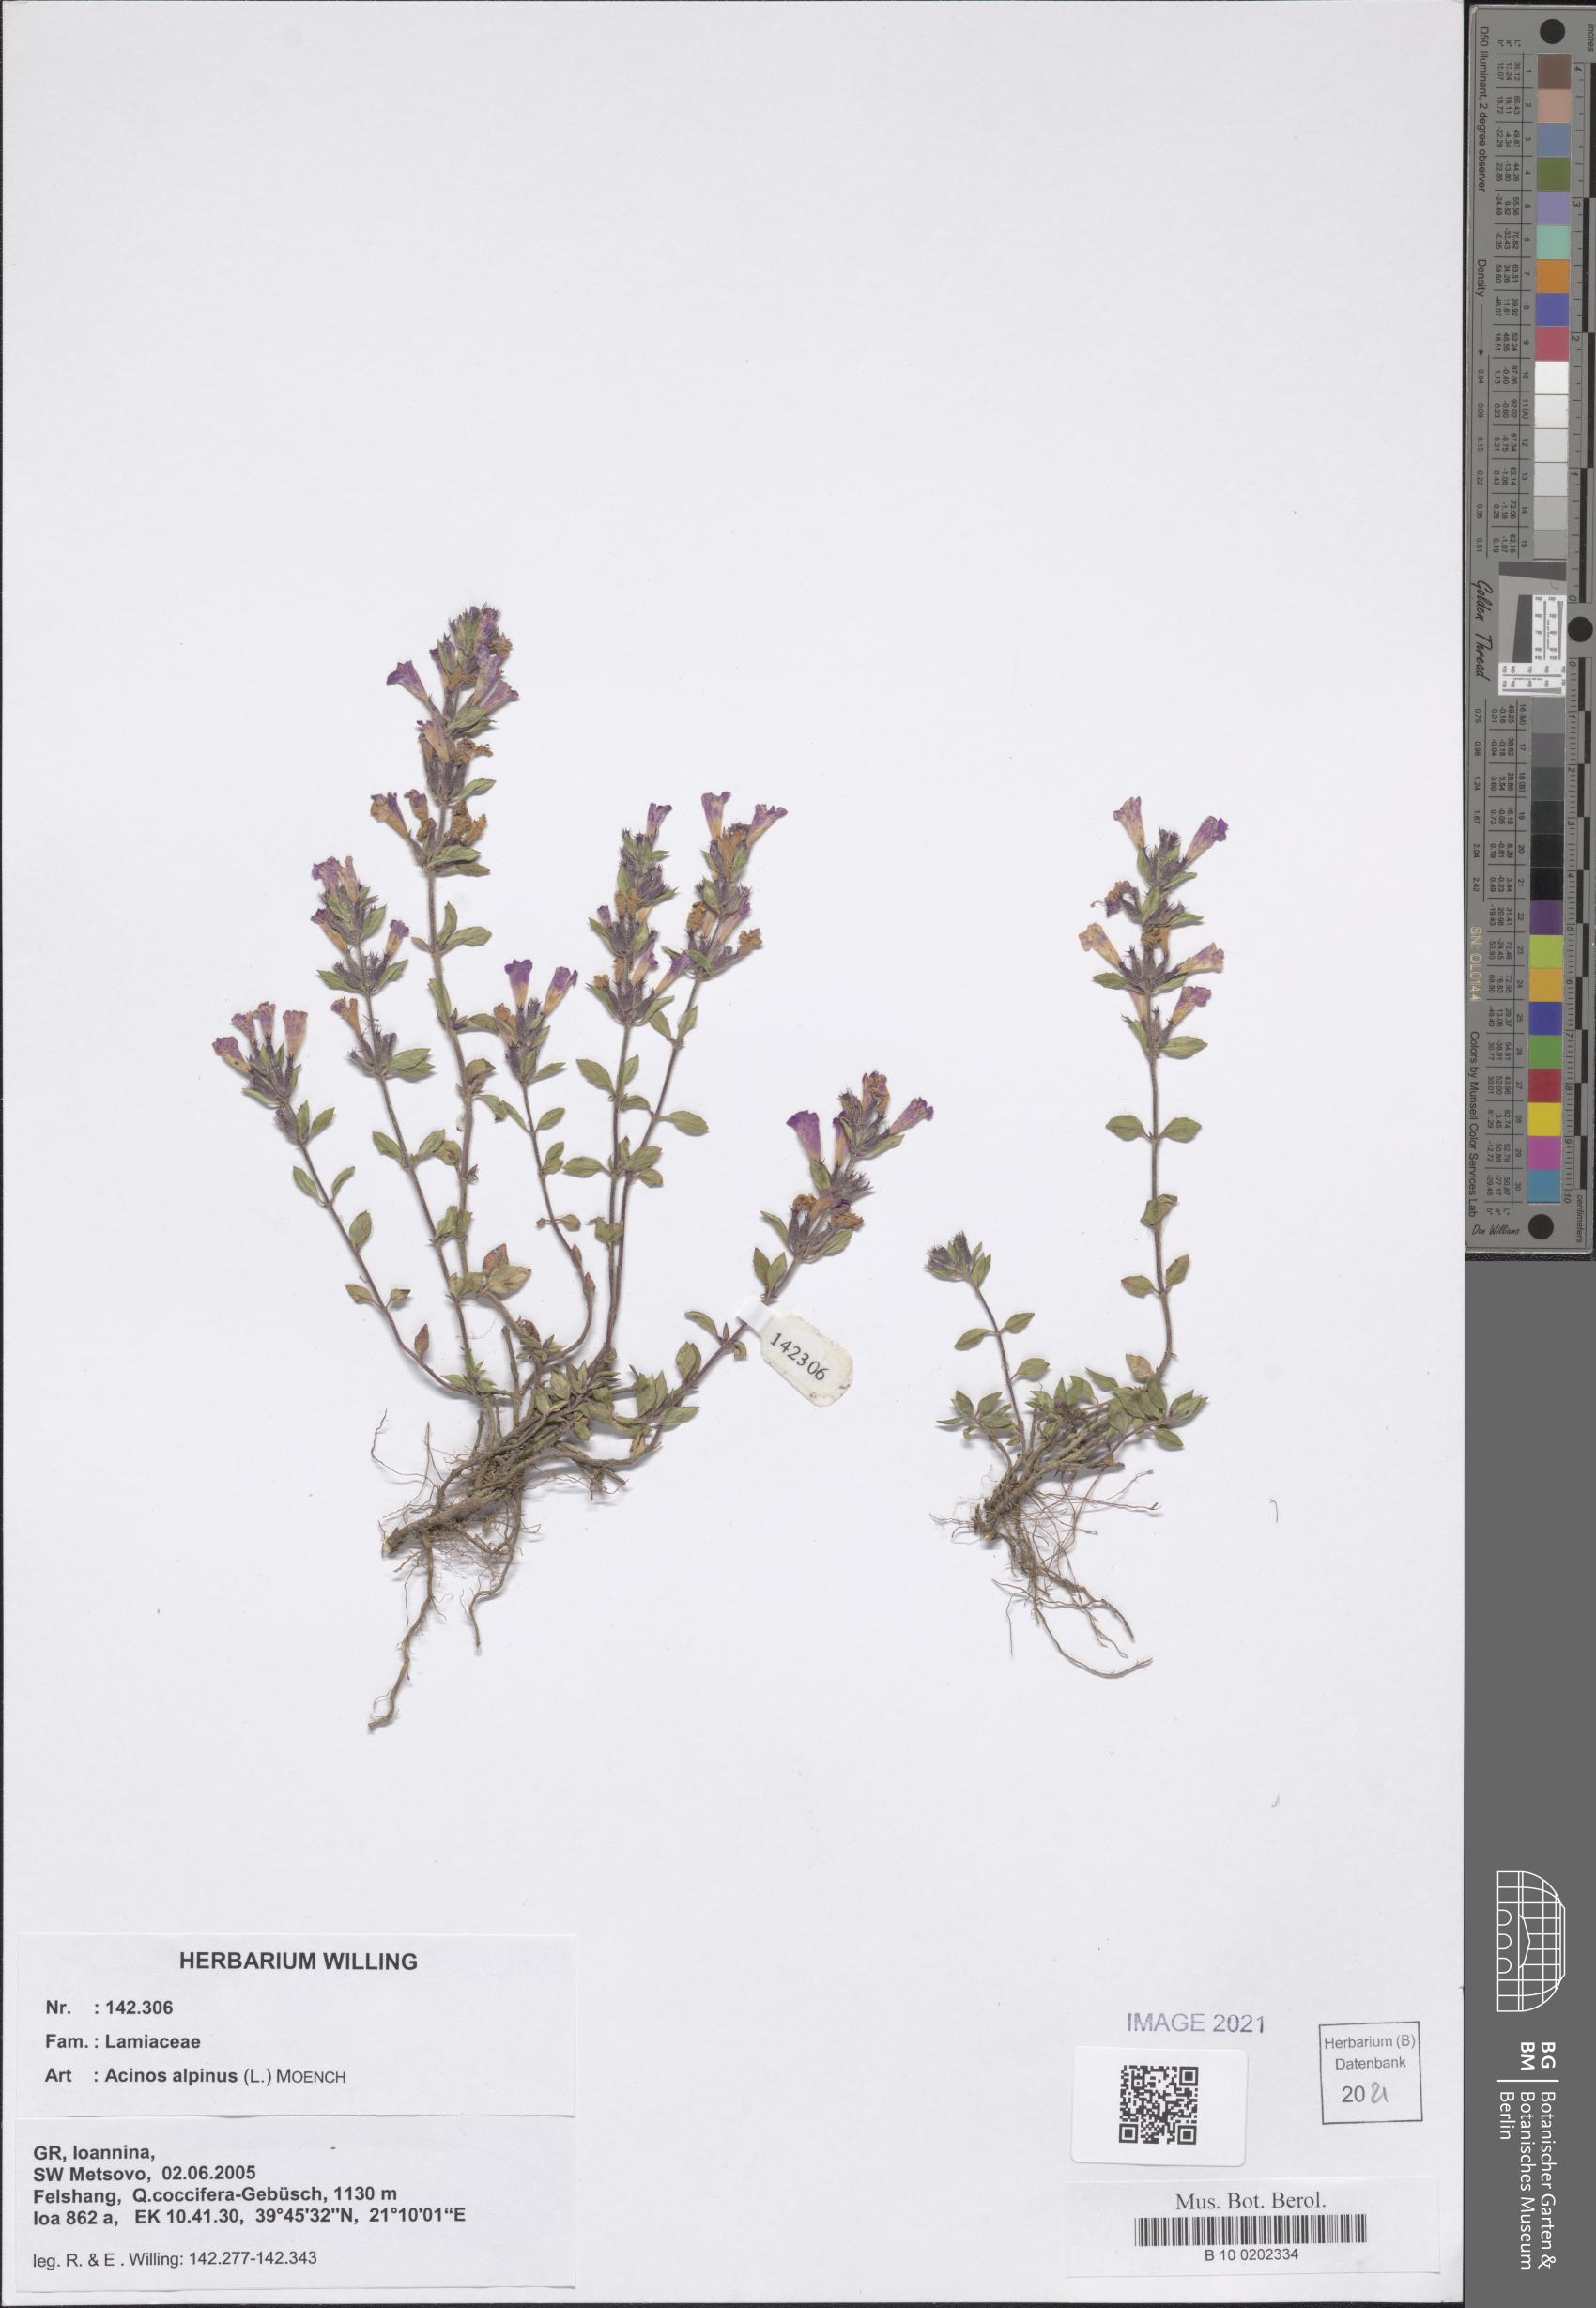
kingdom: Plantae
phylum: Tracheophyta
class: Magnoliopsida
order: Lamiales
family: Lamiaceae
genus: Clinopodium
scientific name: Clinopodium alpinum
